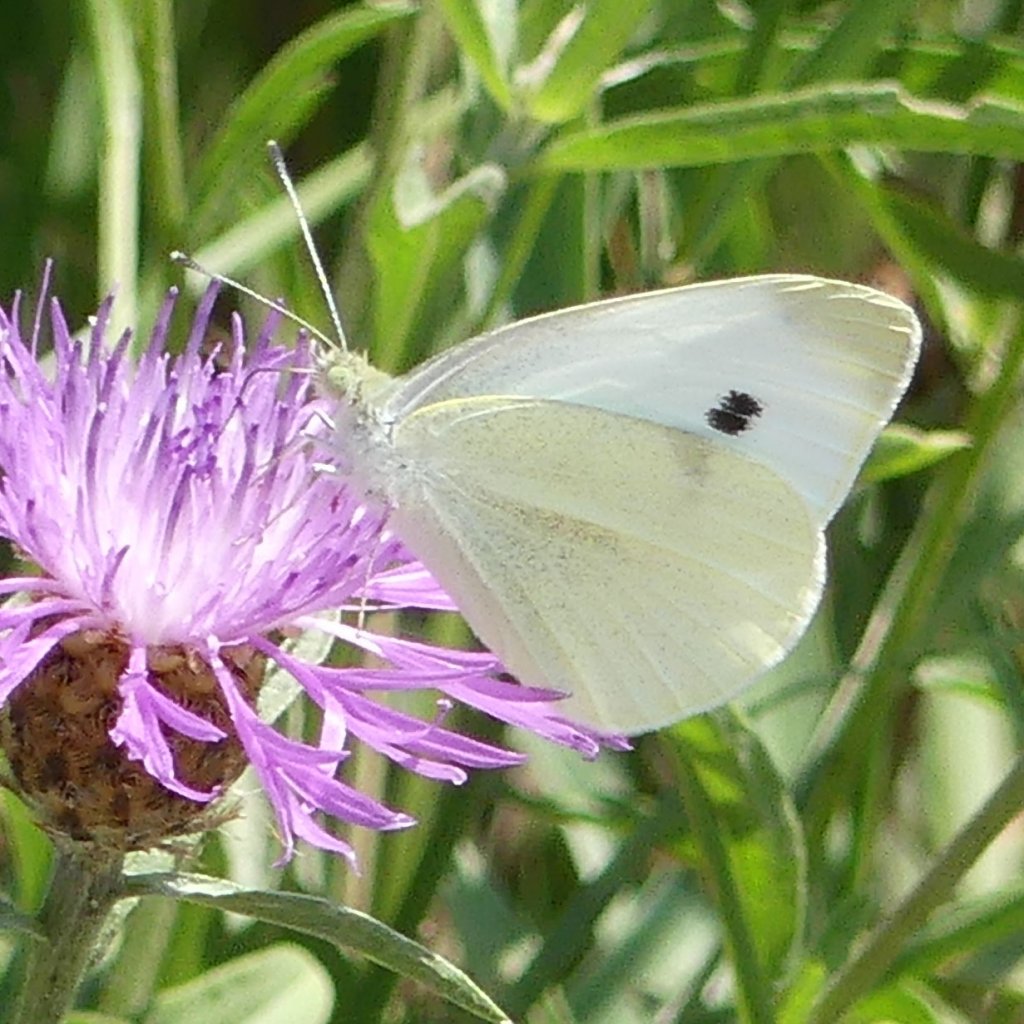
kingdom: Animalia
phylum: Arthropoda
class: Insecta
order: Lepidoptera
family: Pieridae
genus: Pieris
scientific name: Pieris rapae
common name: Cabbage White
